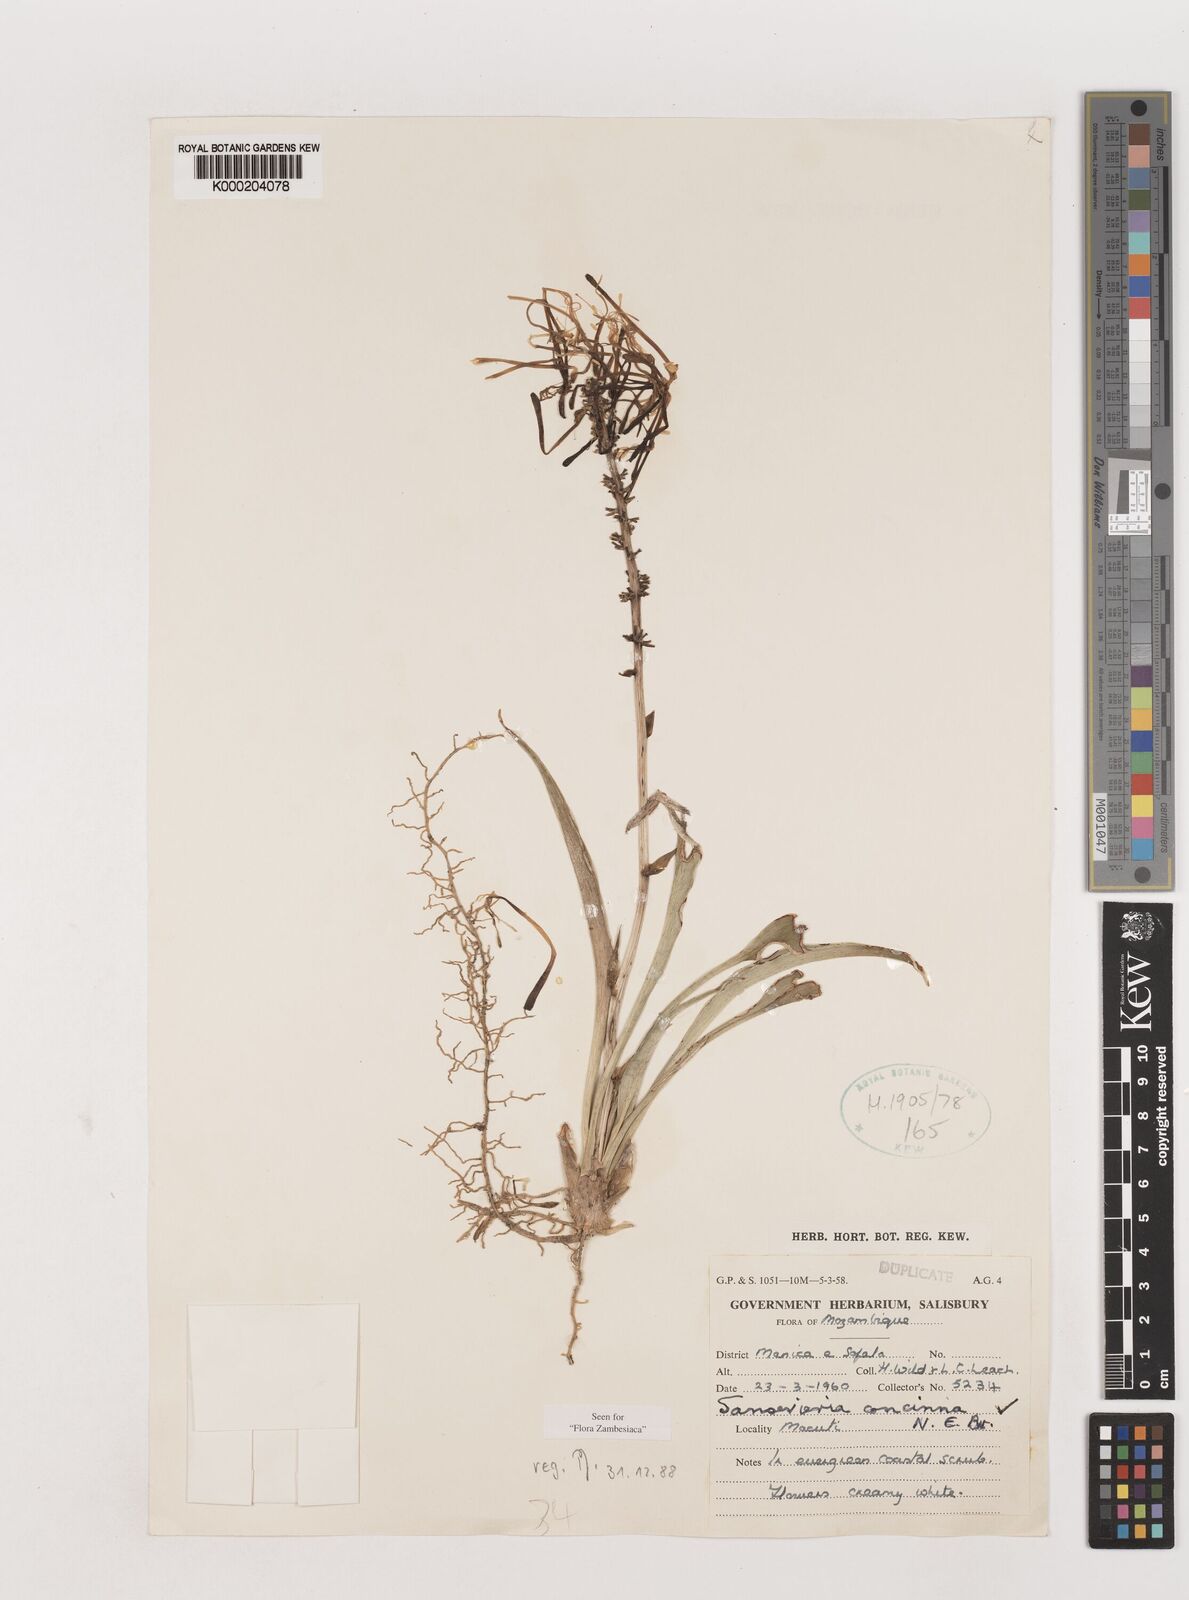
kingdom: Plantae
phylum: Tracheophyta
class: Liliopsida
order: Asparagales
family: Asparagaceae
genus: Dracaena
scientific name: Dracaena spathulata
